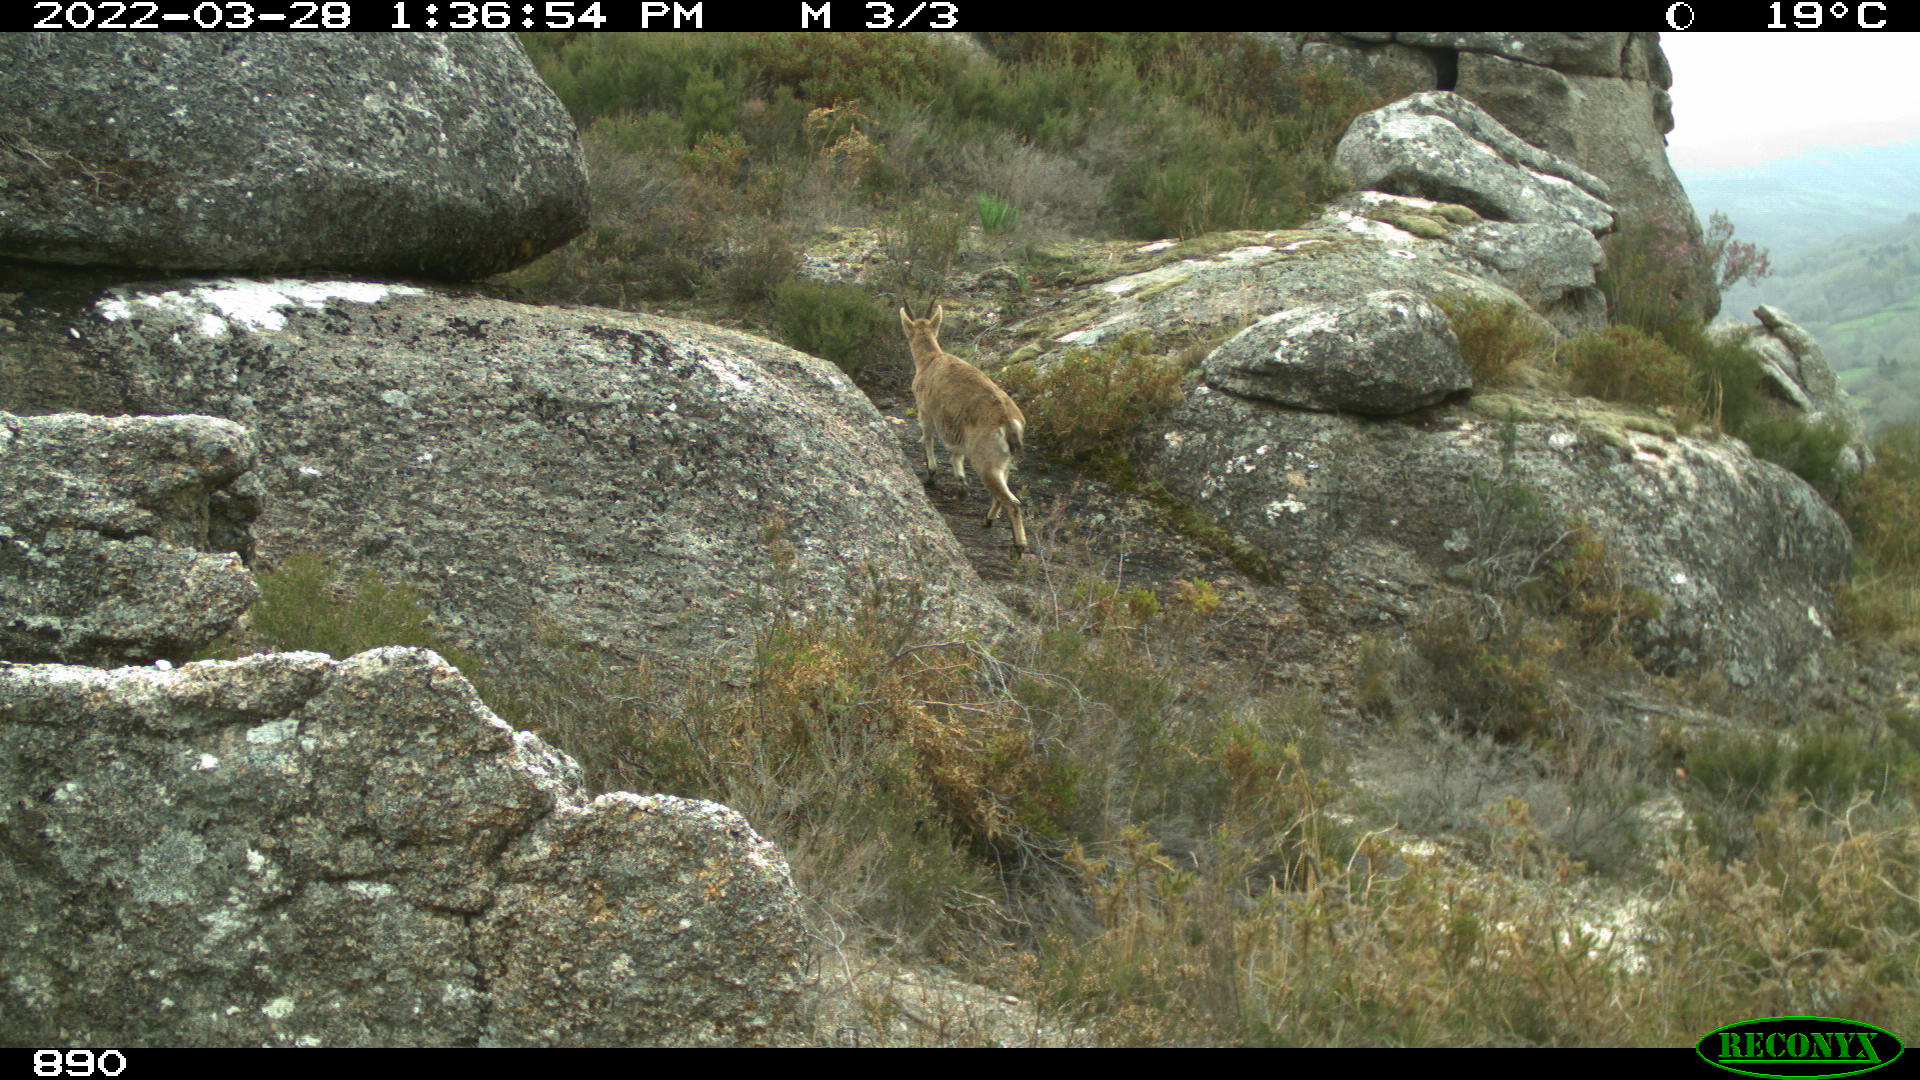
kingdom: Animalia
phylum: Chordata
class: Mammalia
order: Artiodactyla
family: Bovidae
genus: Capra
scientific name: Capra pyrenaica
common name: Spanish ibex
